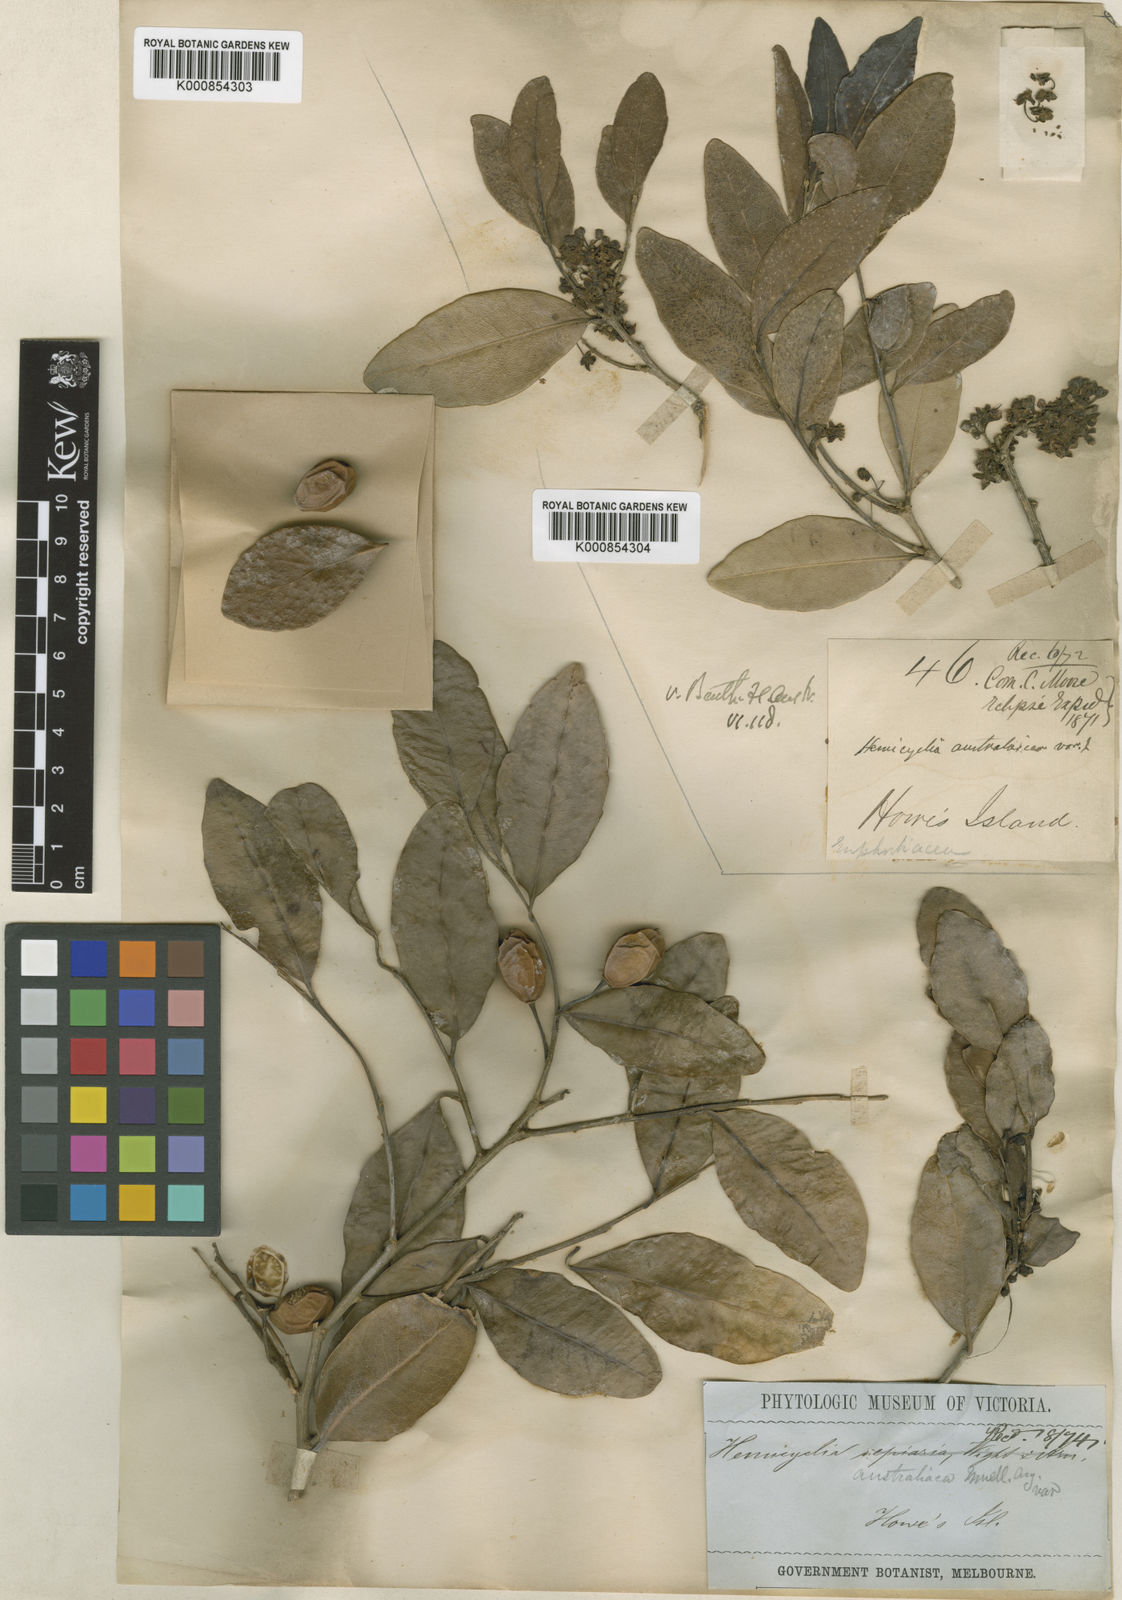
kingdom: Plantae
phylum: Tracheophyta
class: Magnoliopsida
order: Malpighiales
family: Putranjivaceae
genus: Drypetes
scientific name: Drypetes deplanchei
